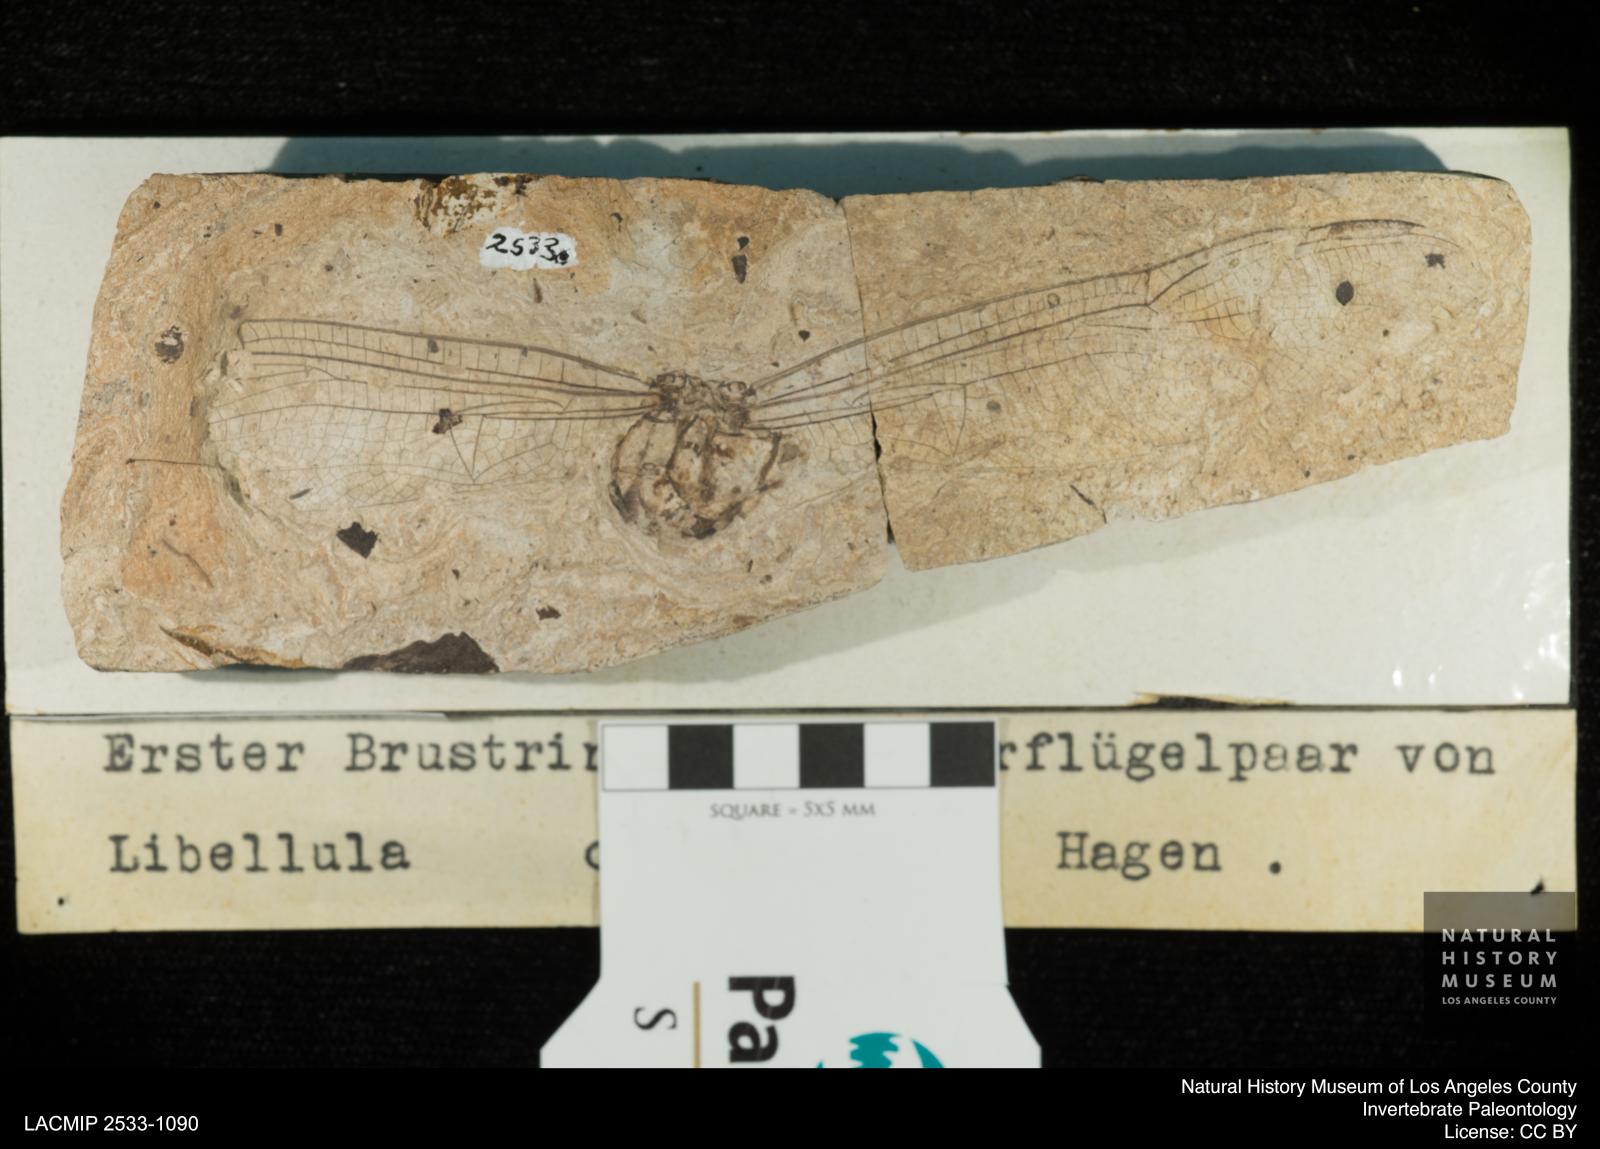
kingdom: Animalia
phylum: Arthropoda
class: Insecta
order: Odonata
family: Libellulidae
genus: Palaeotramea
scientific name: Palaeotramea Libellula cellulosa
